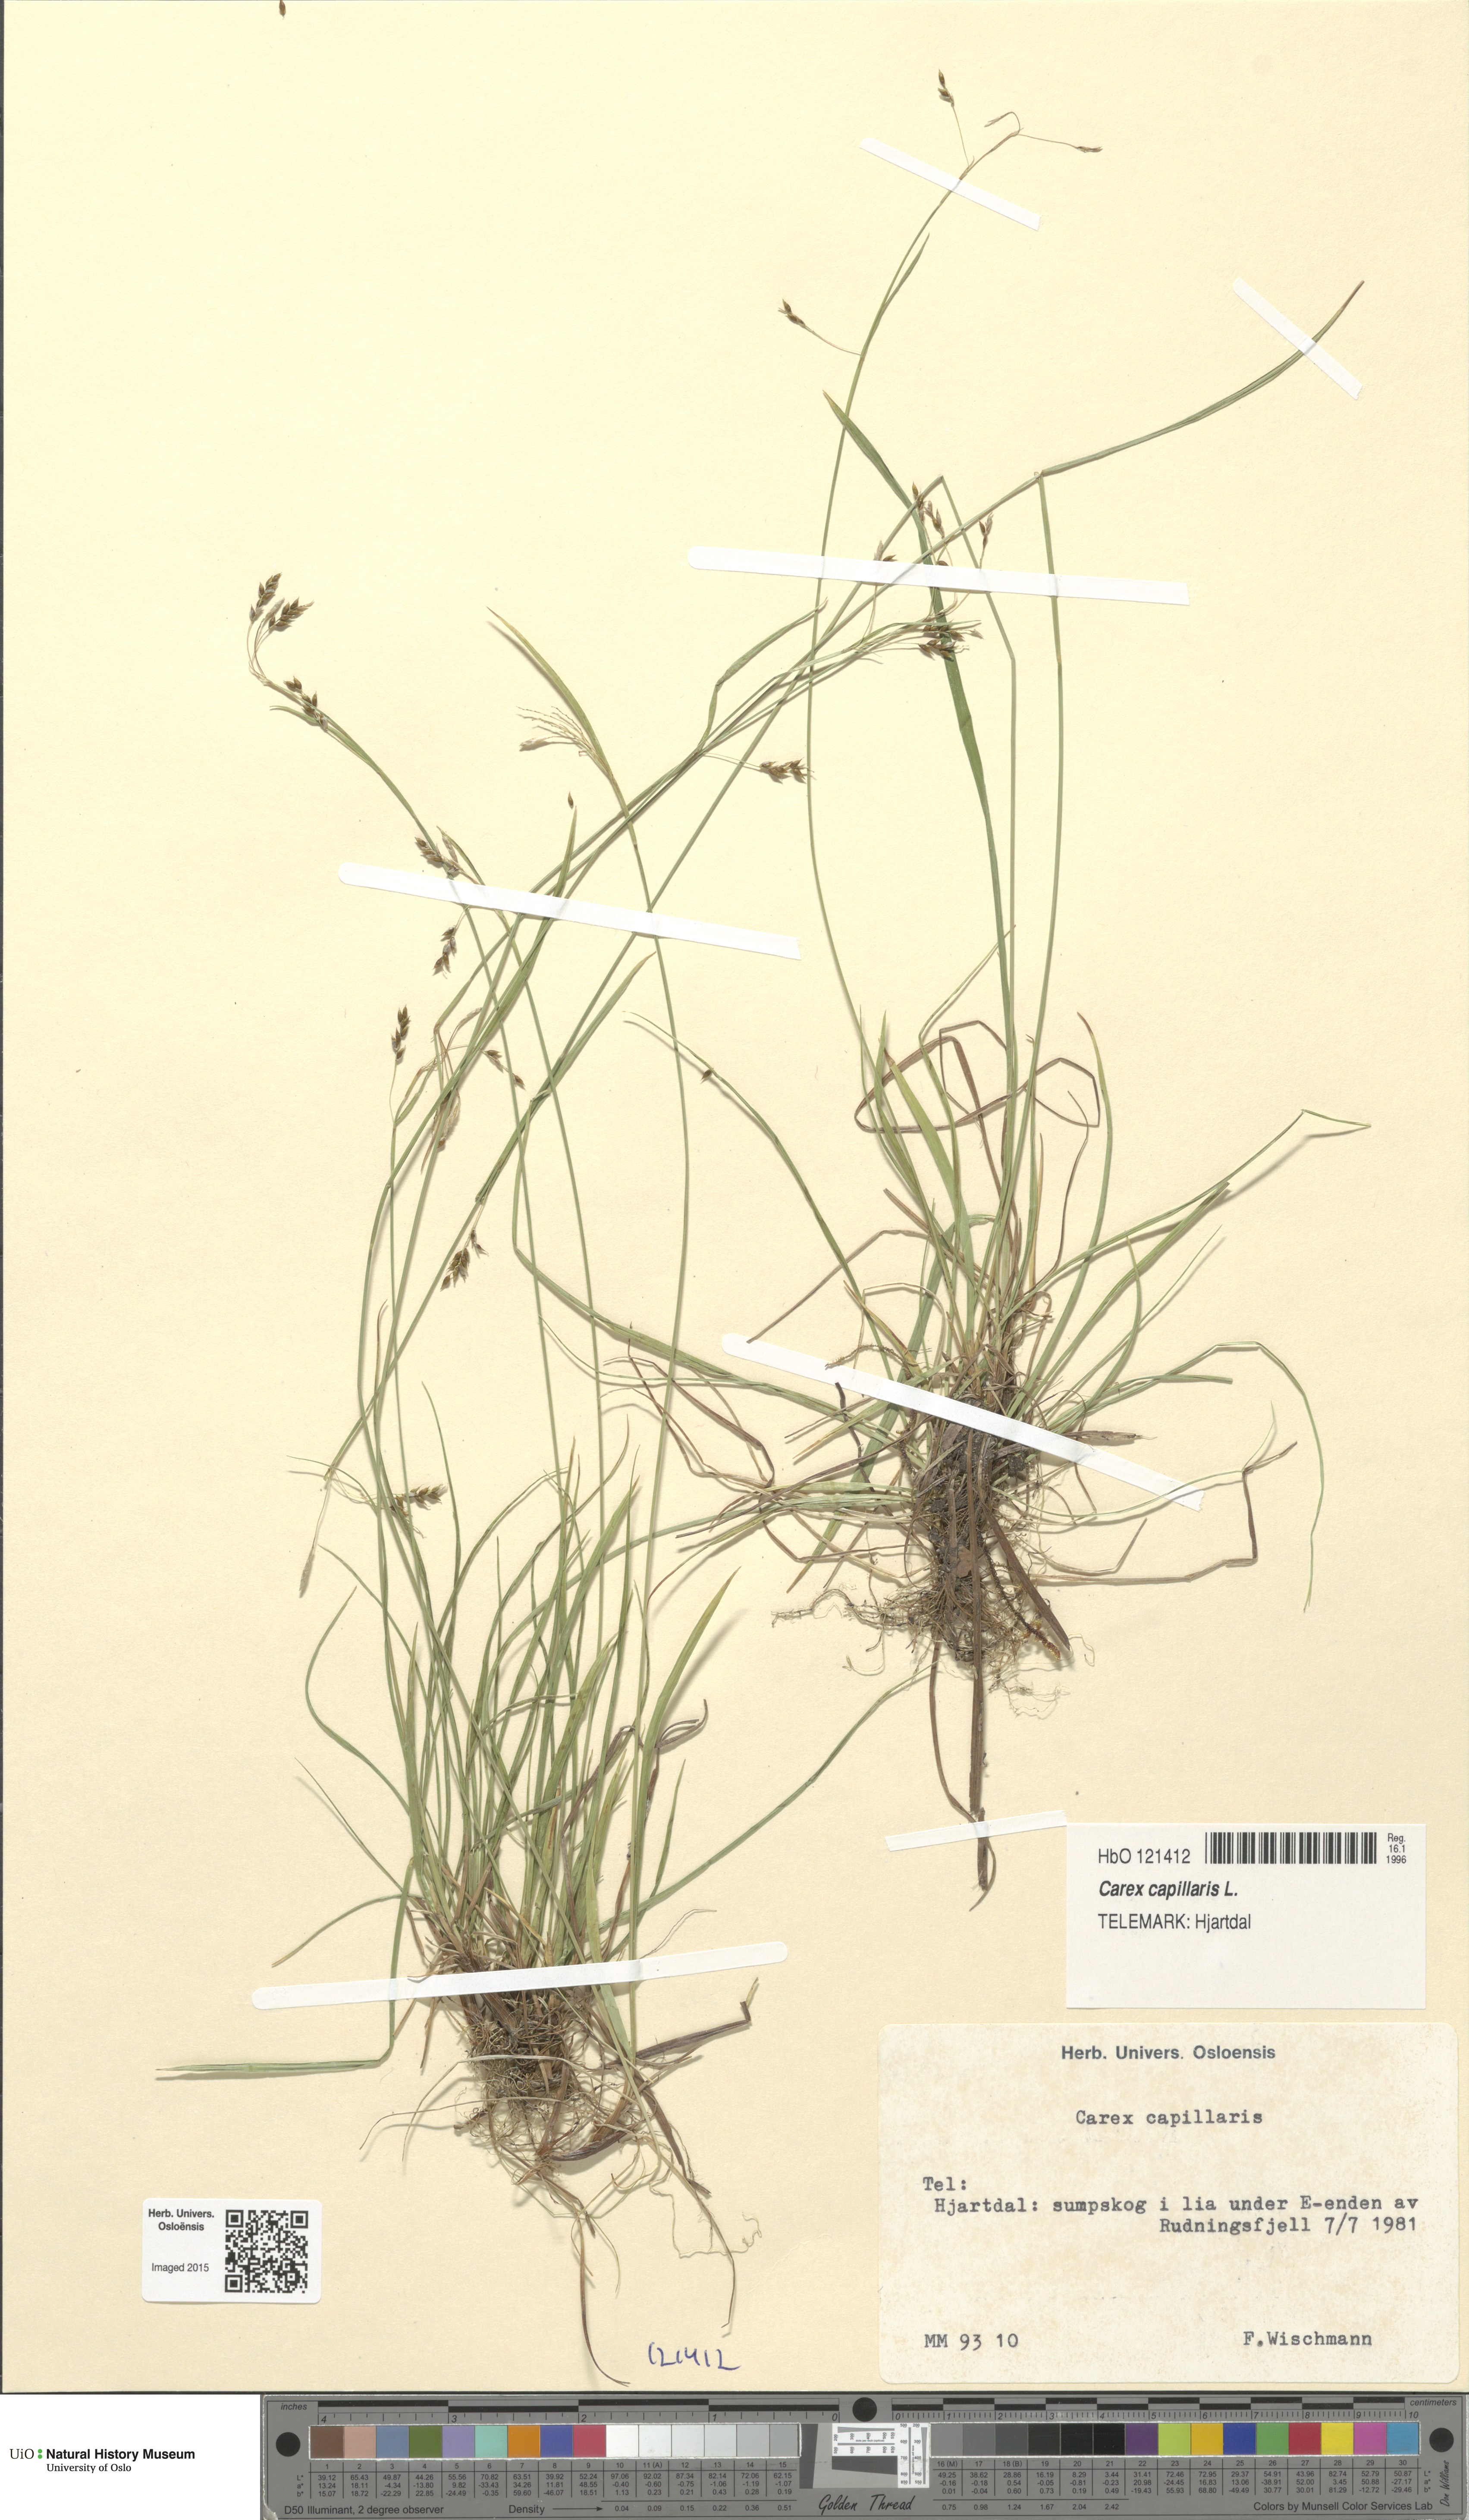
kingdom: Plantae
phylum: Tracheophyta
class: Liliopsida
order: Poales
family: Cyperaceae
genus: Carex
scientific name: Carex capillaris
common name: Hair sedge
